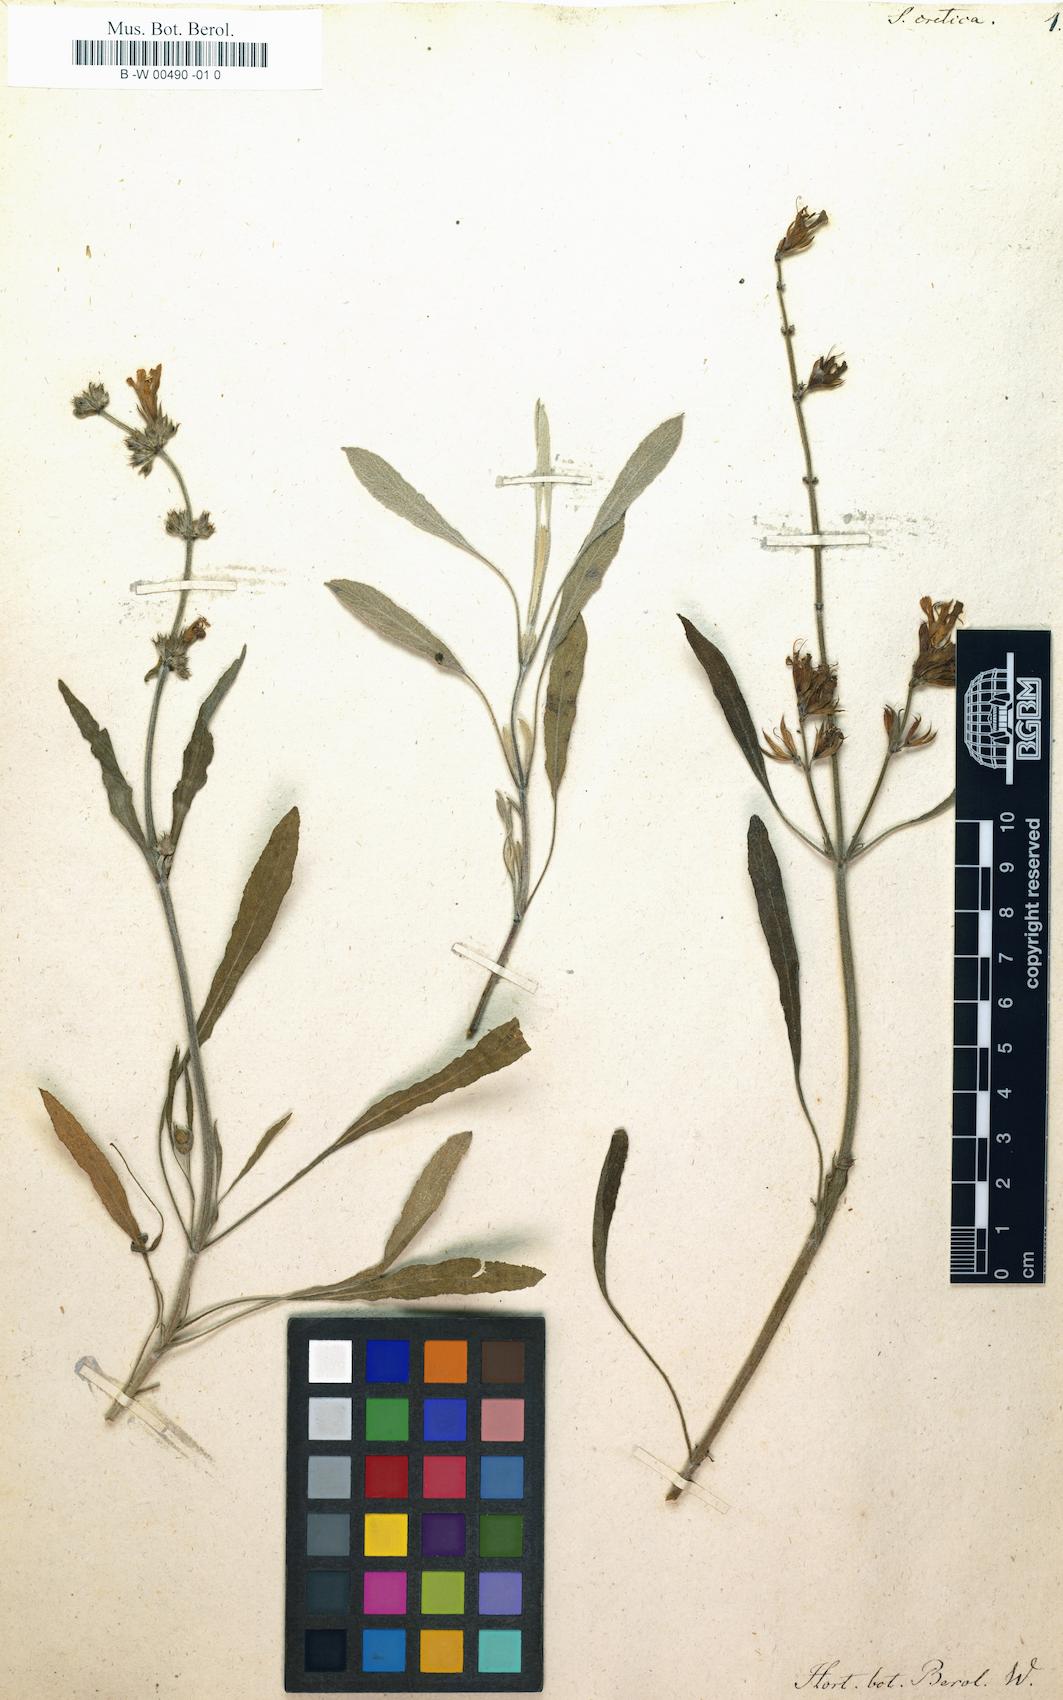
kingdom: Plantae
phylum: Tracheophyta
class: Magnoliopsida
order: Lamiales
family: Lamiaceae
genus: Salvia
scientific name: Salvia officinalis
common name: Sage
